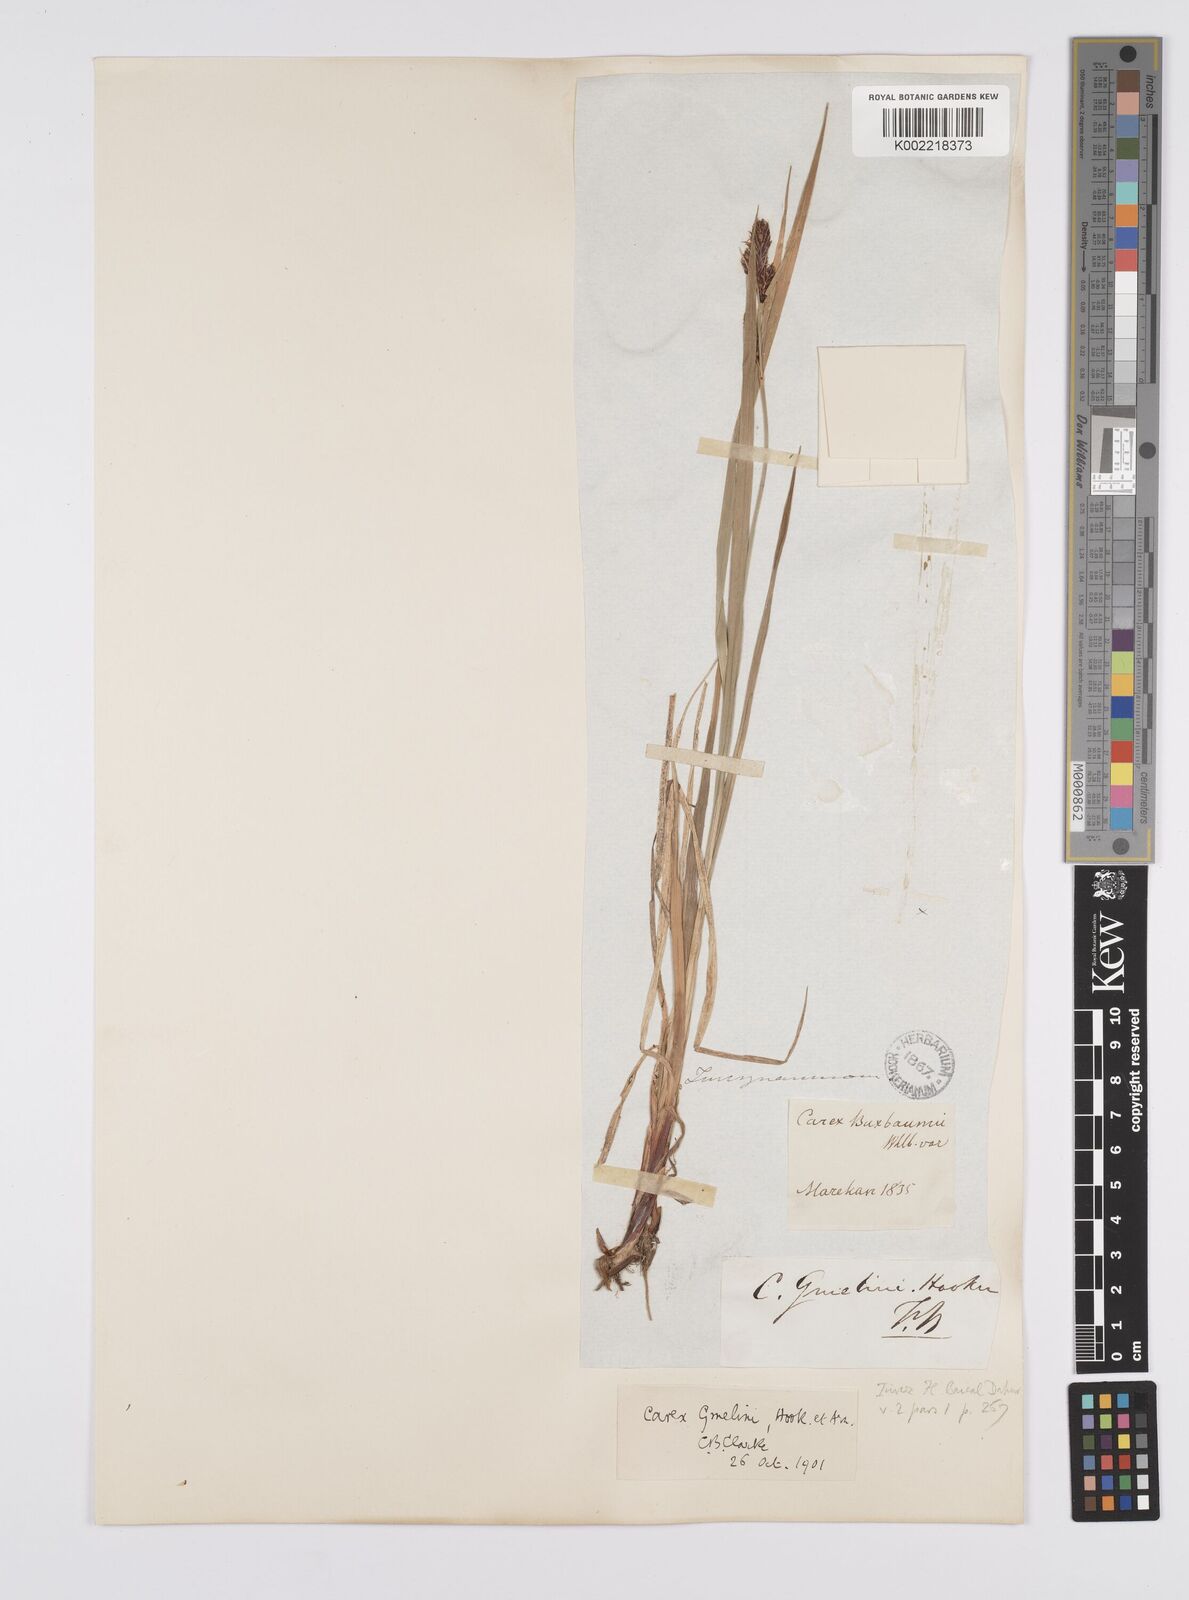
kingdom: Plantae
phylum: Tracheophyta
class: Liliopsida
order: Poales
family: Cyperaceae
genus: Carex
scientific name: Carex gmelinii
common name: Gmelin's sedge
